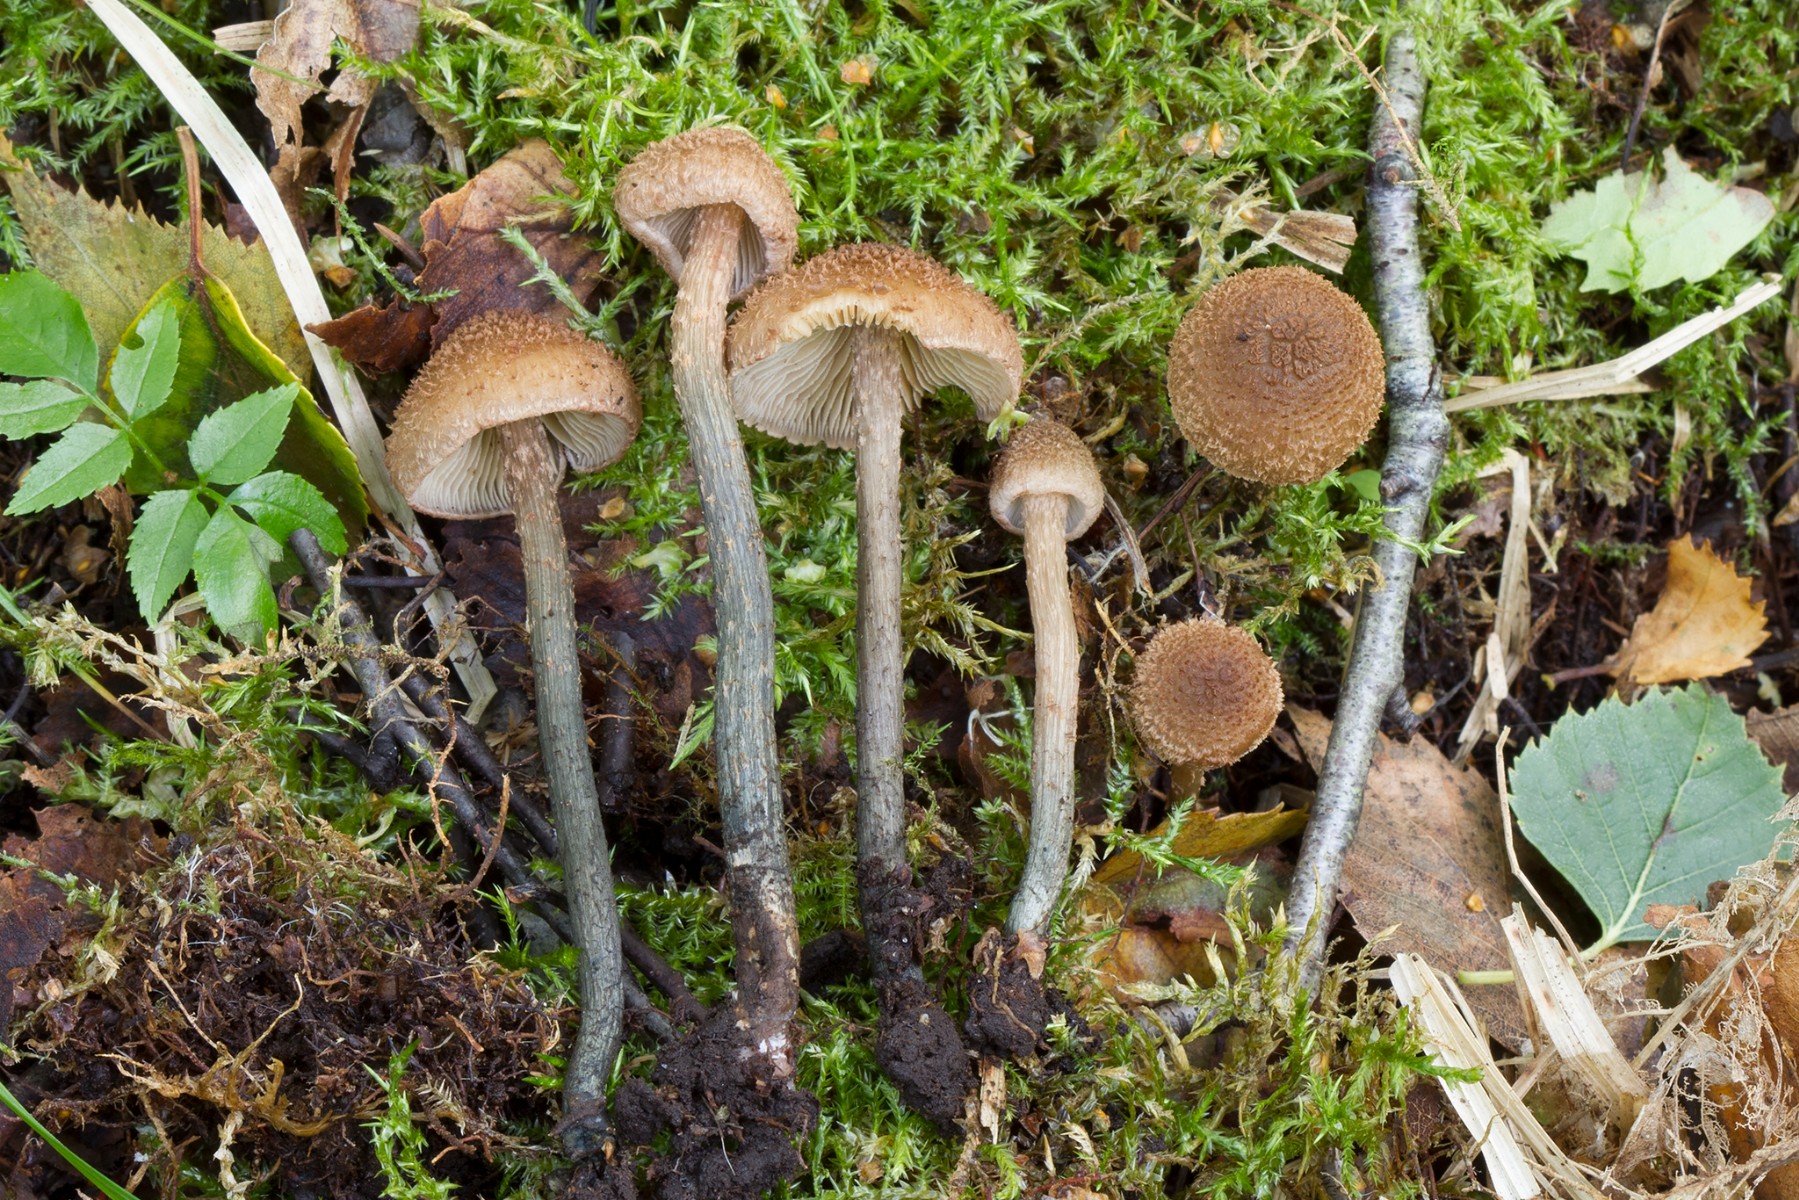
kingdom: Fungi
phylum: Basidiomycota
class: Agaricomycetes
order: Agaricales
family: Inocybaceae
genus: Inosperma
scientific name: Inosperma calamistratum
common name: grønfodet trævlhat
